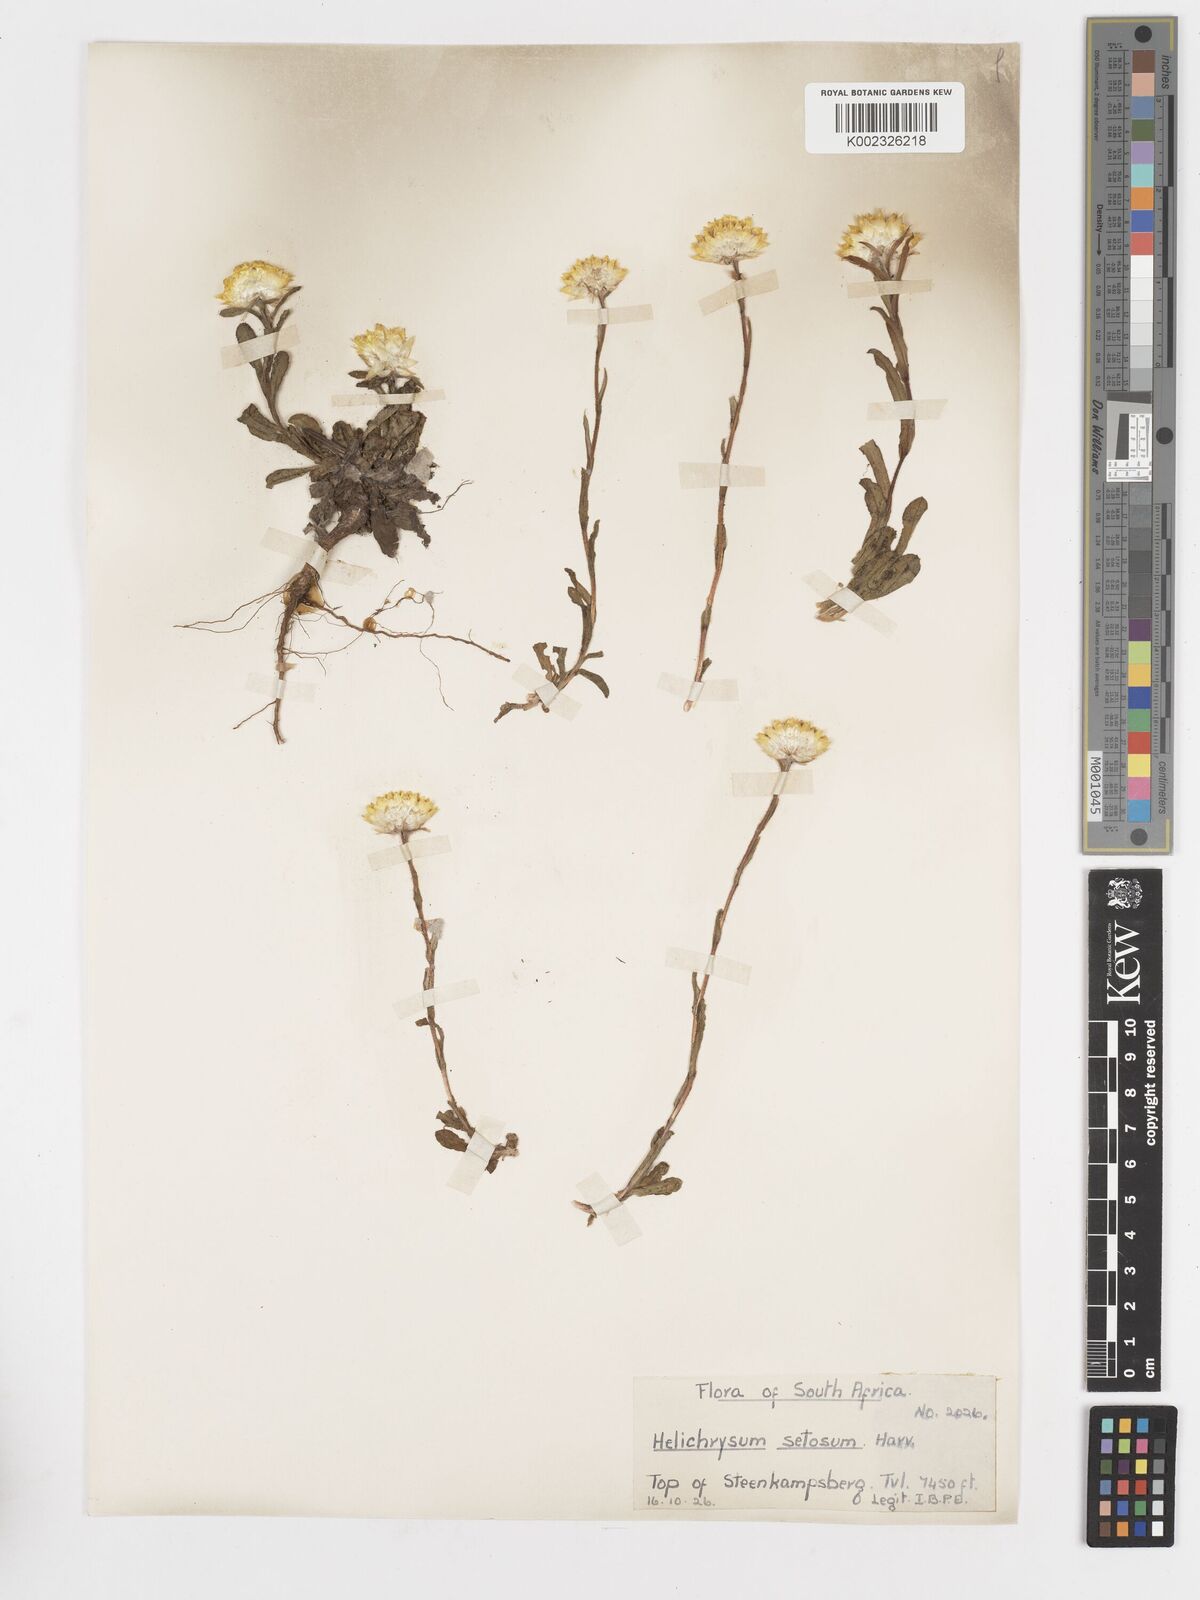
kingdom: Plantae
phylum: Tracheophyta
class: Magnoliopsida
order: Asterales
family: Asteraceae
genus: Helichrysum
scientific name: Helichrysum aureum
